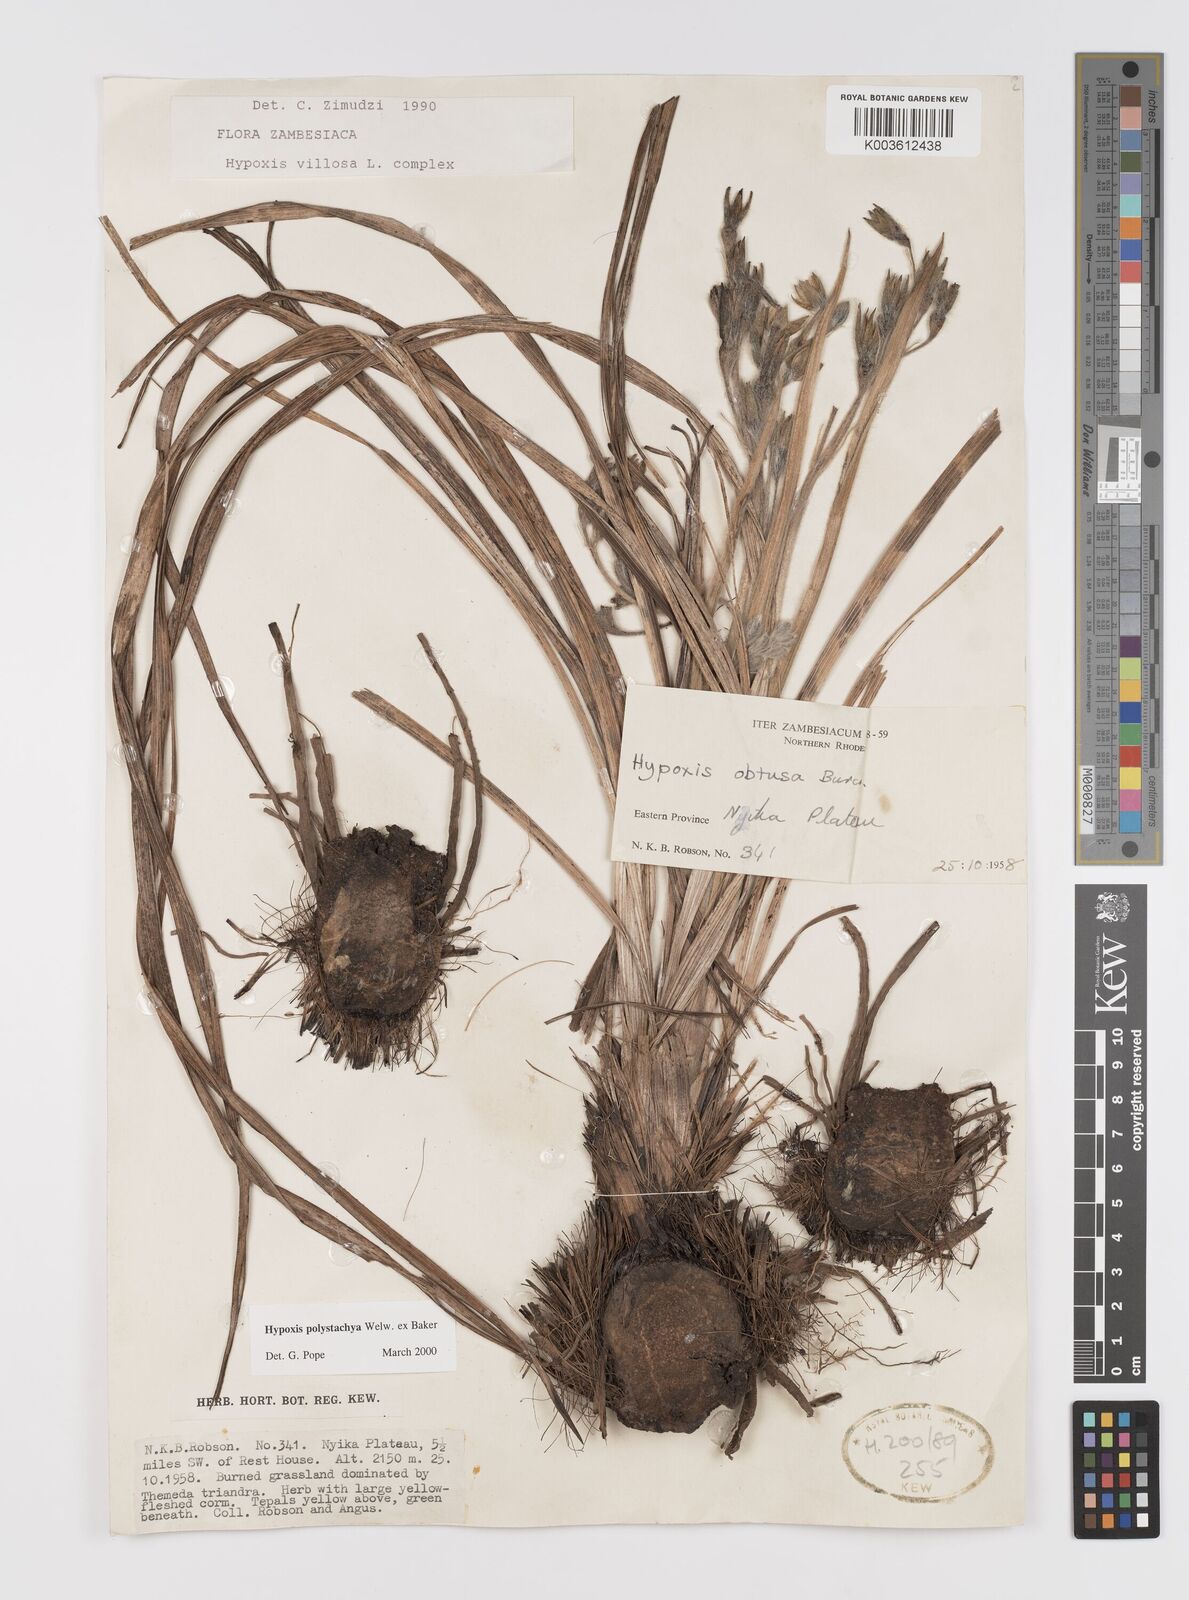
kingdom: Plantae
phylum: Tracheophyta
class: Liliopsida
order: Asparagales
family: Hypoxidaceae
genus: Hypoxis
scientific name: Hypoxis polystachya
